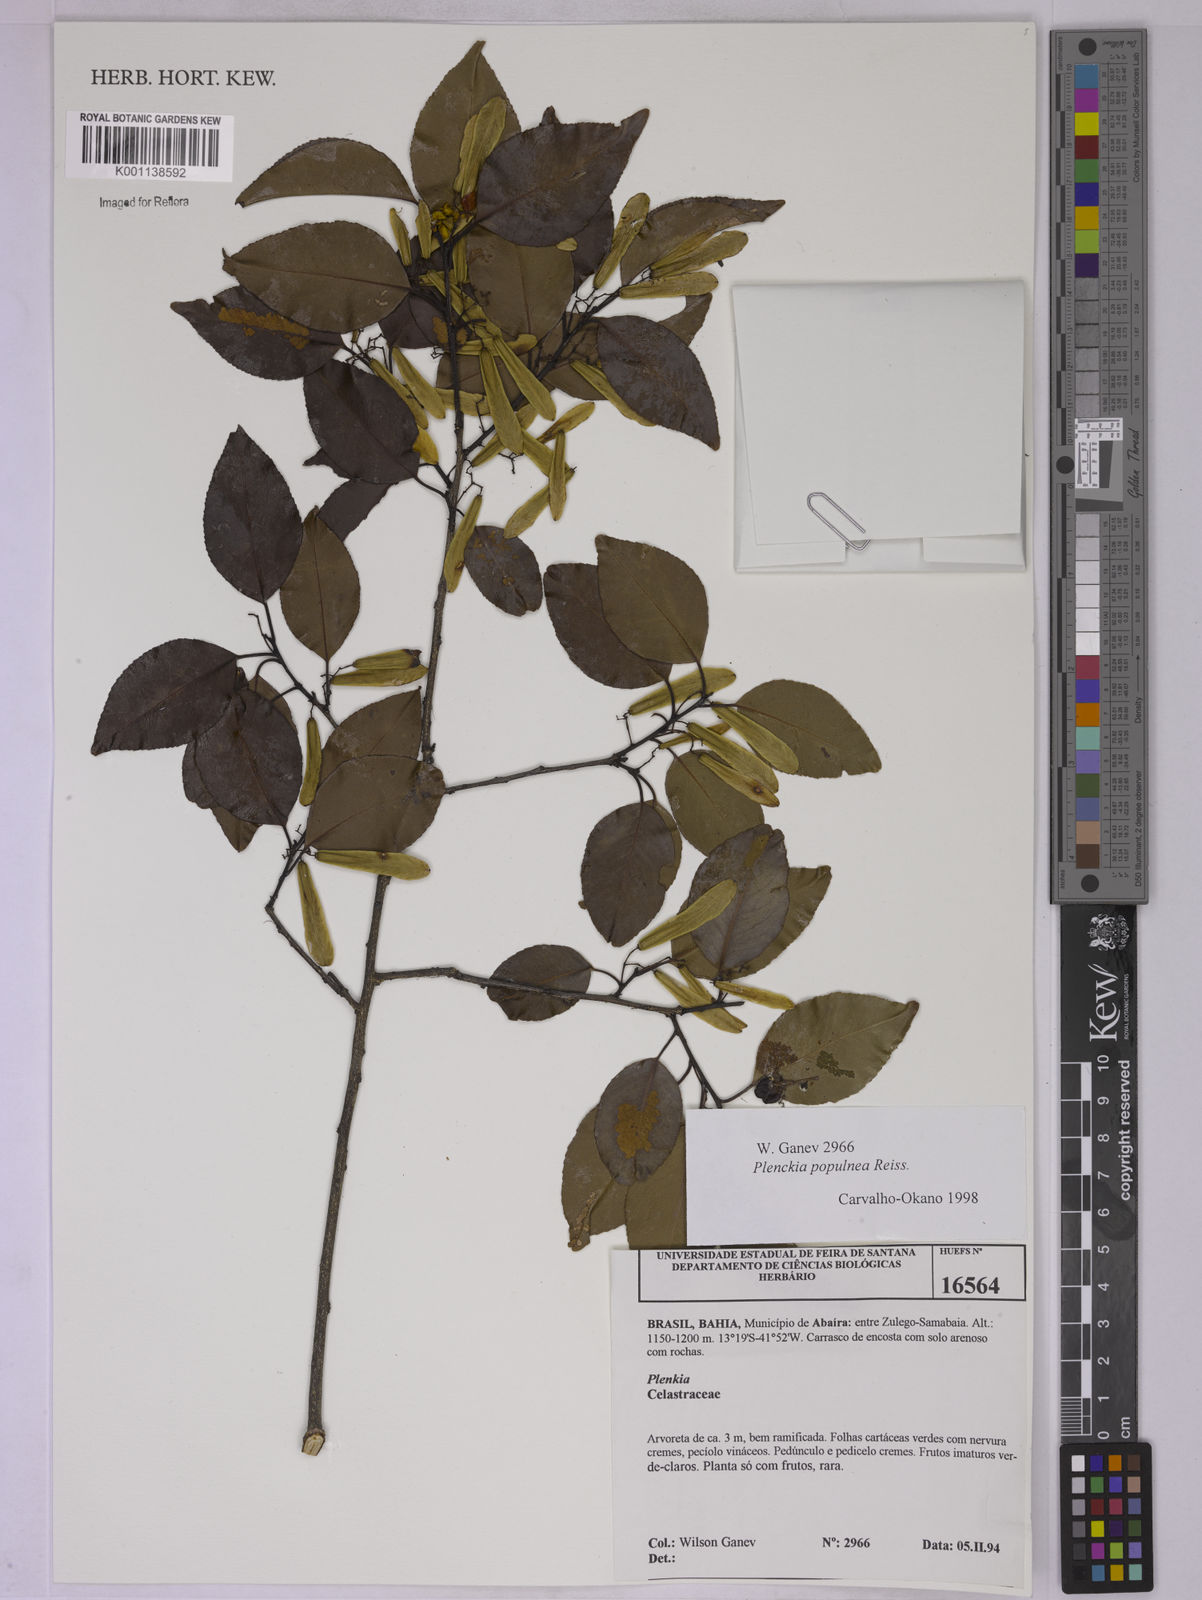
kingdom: Plantae
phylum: Tracheophyta
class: Magnoliopsida
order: Celastrales
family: Celastraceae
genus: Plenckia
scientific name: Plenckia populnea
